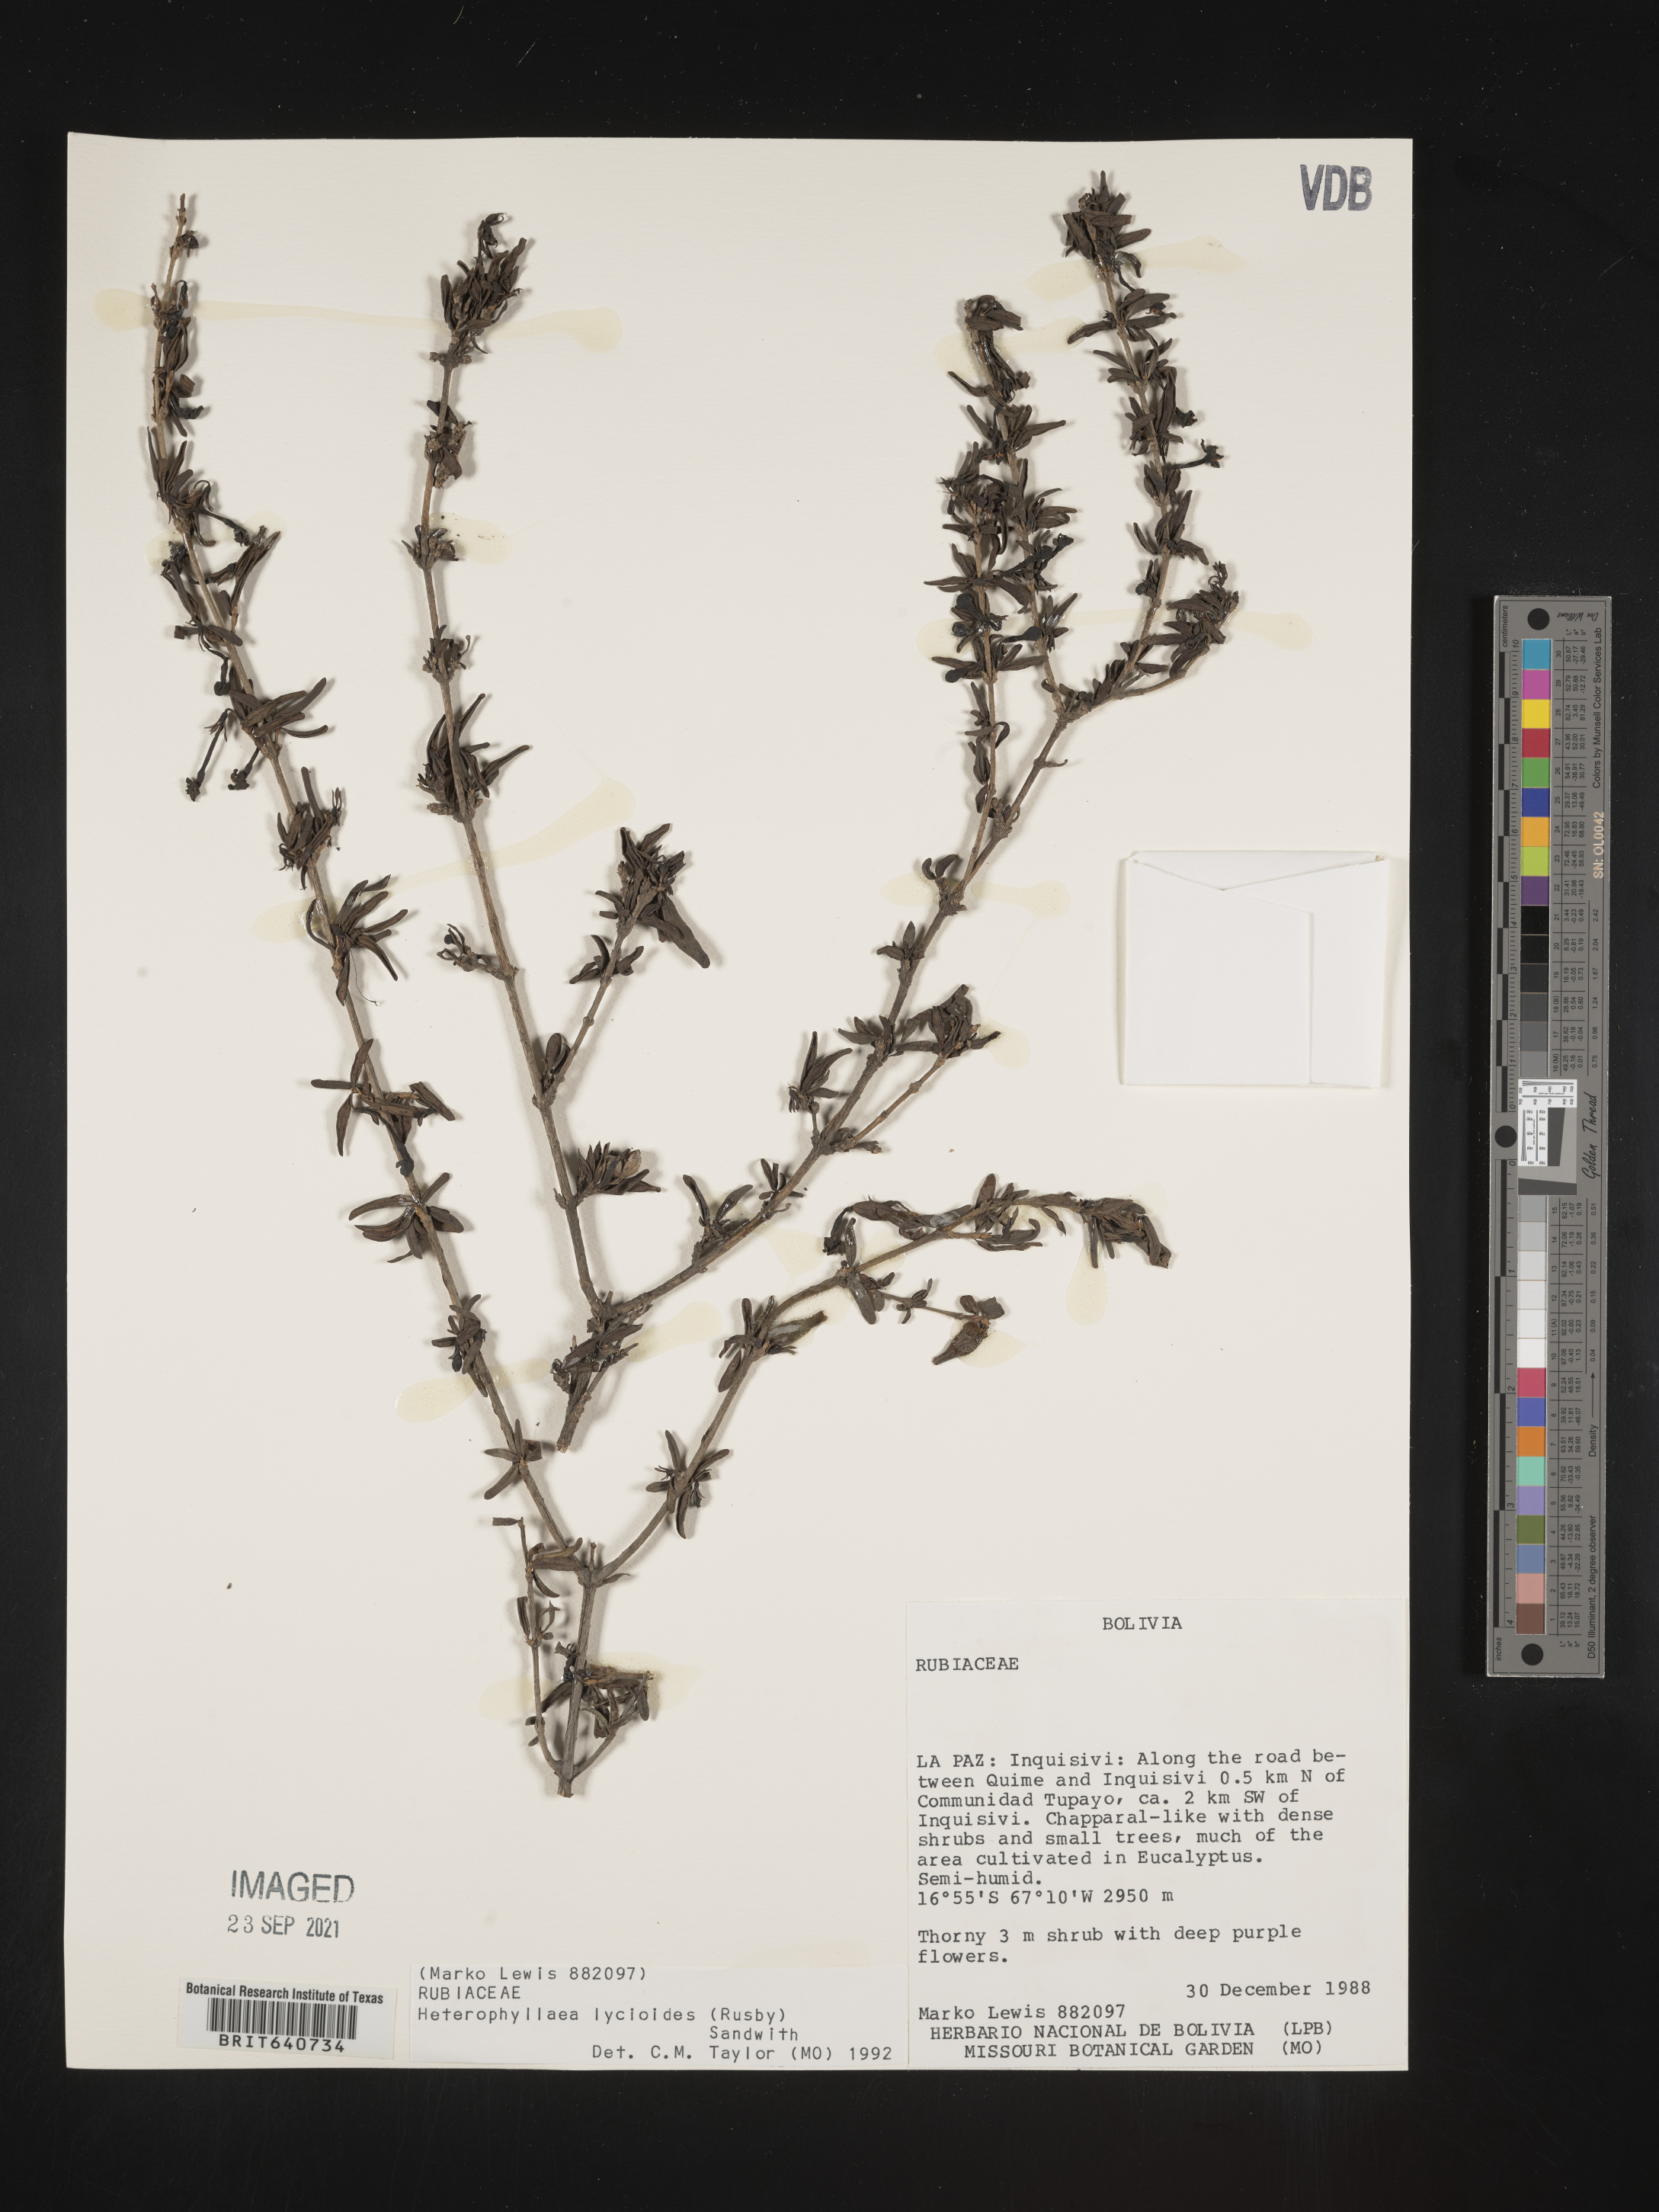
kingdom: Plantae
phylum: Tracheophyta
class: Magnoliopsida
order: Gentianales
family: Rubiaceae
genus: Heterophyllaea
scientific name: Heterophyllaea
